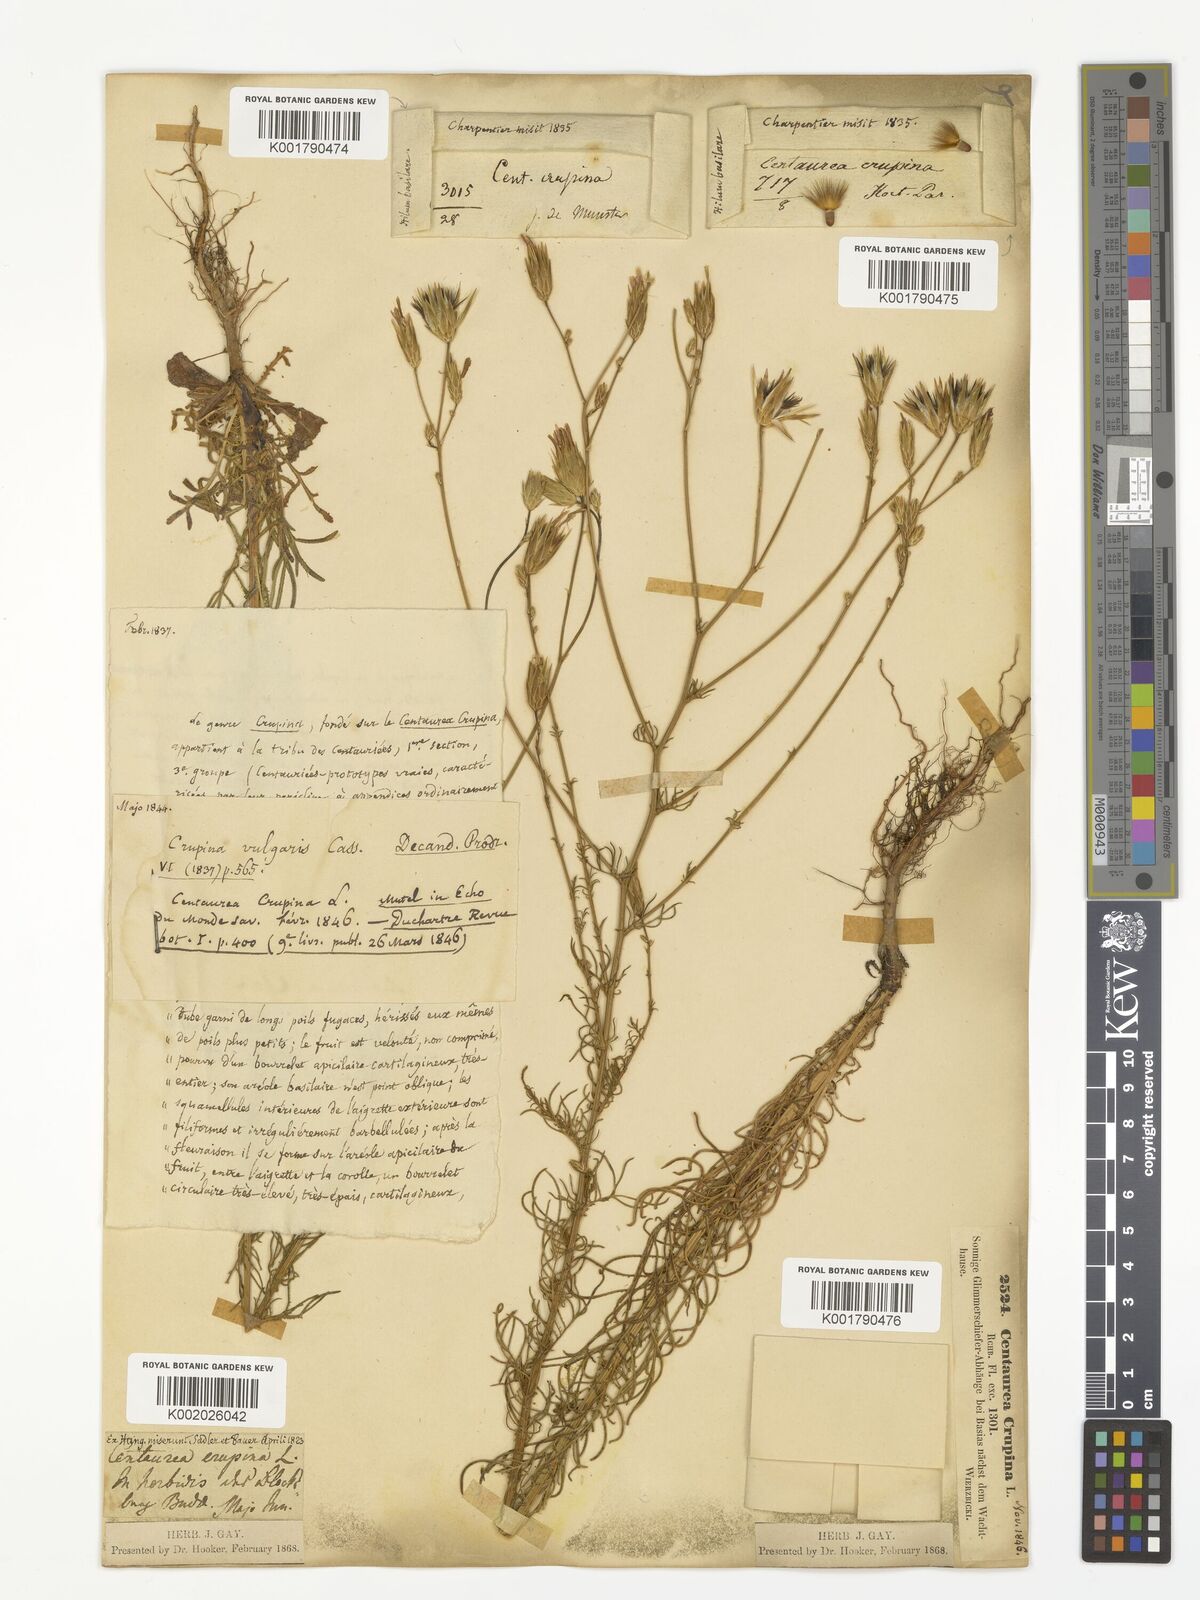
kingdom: Plantae
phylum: Tracheophyta
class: Magnoliopsida
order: Asterales
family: Asteraceae
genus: Crupina
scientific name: Crupina crupinastrum
